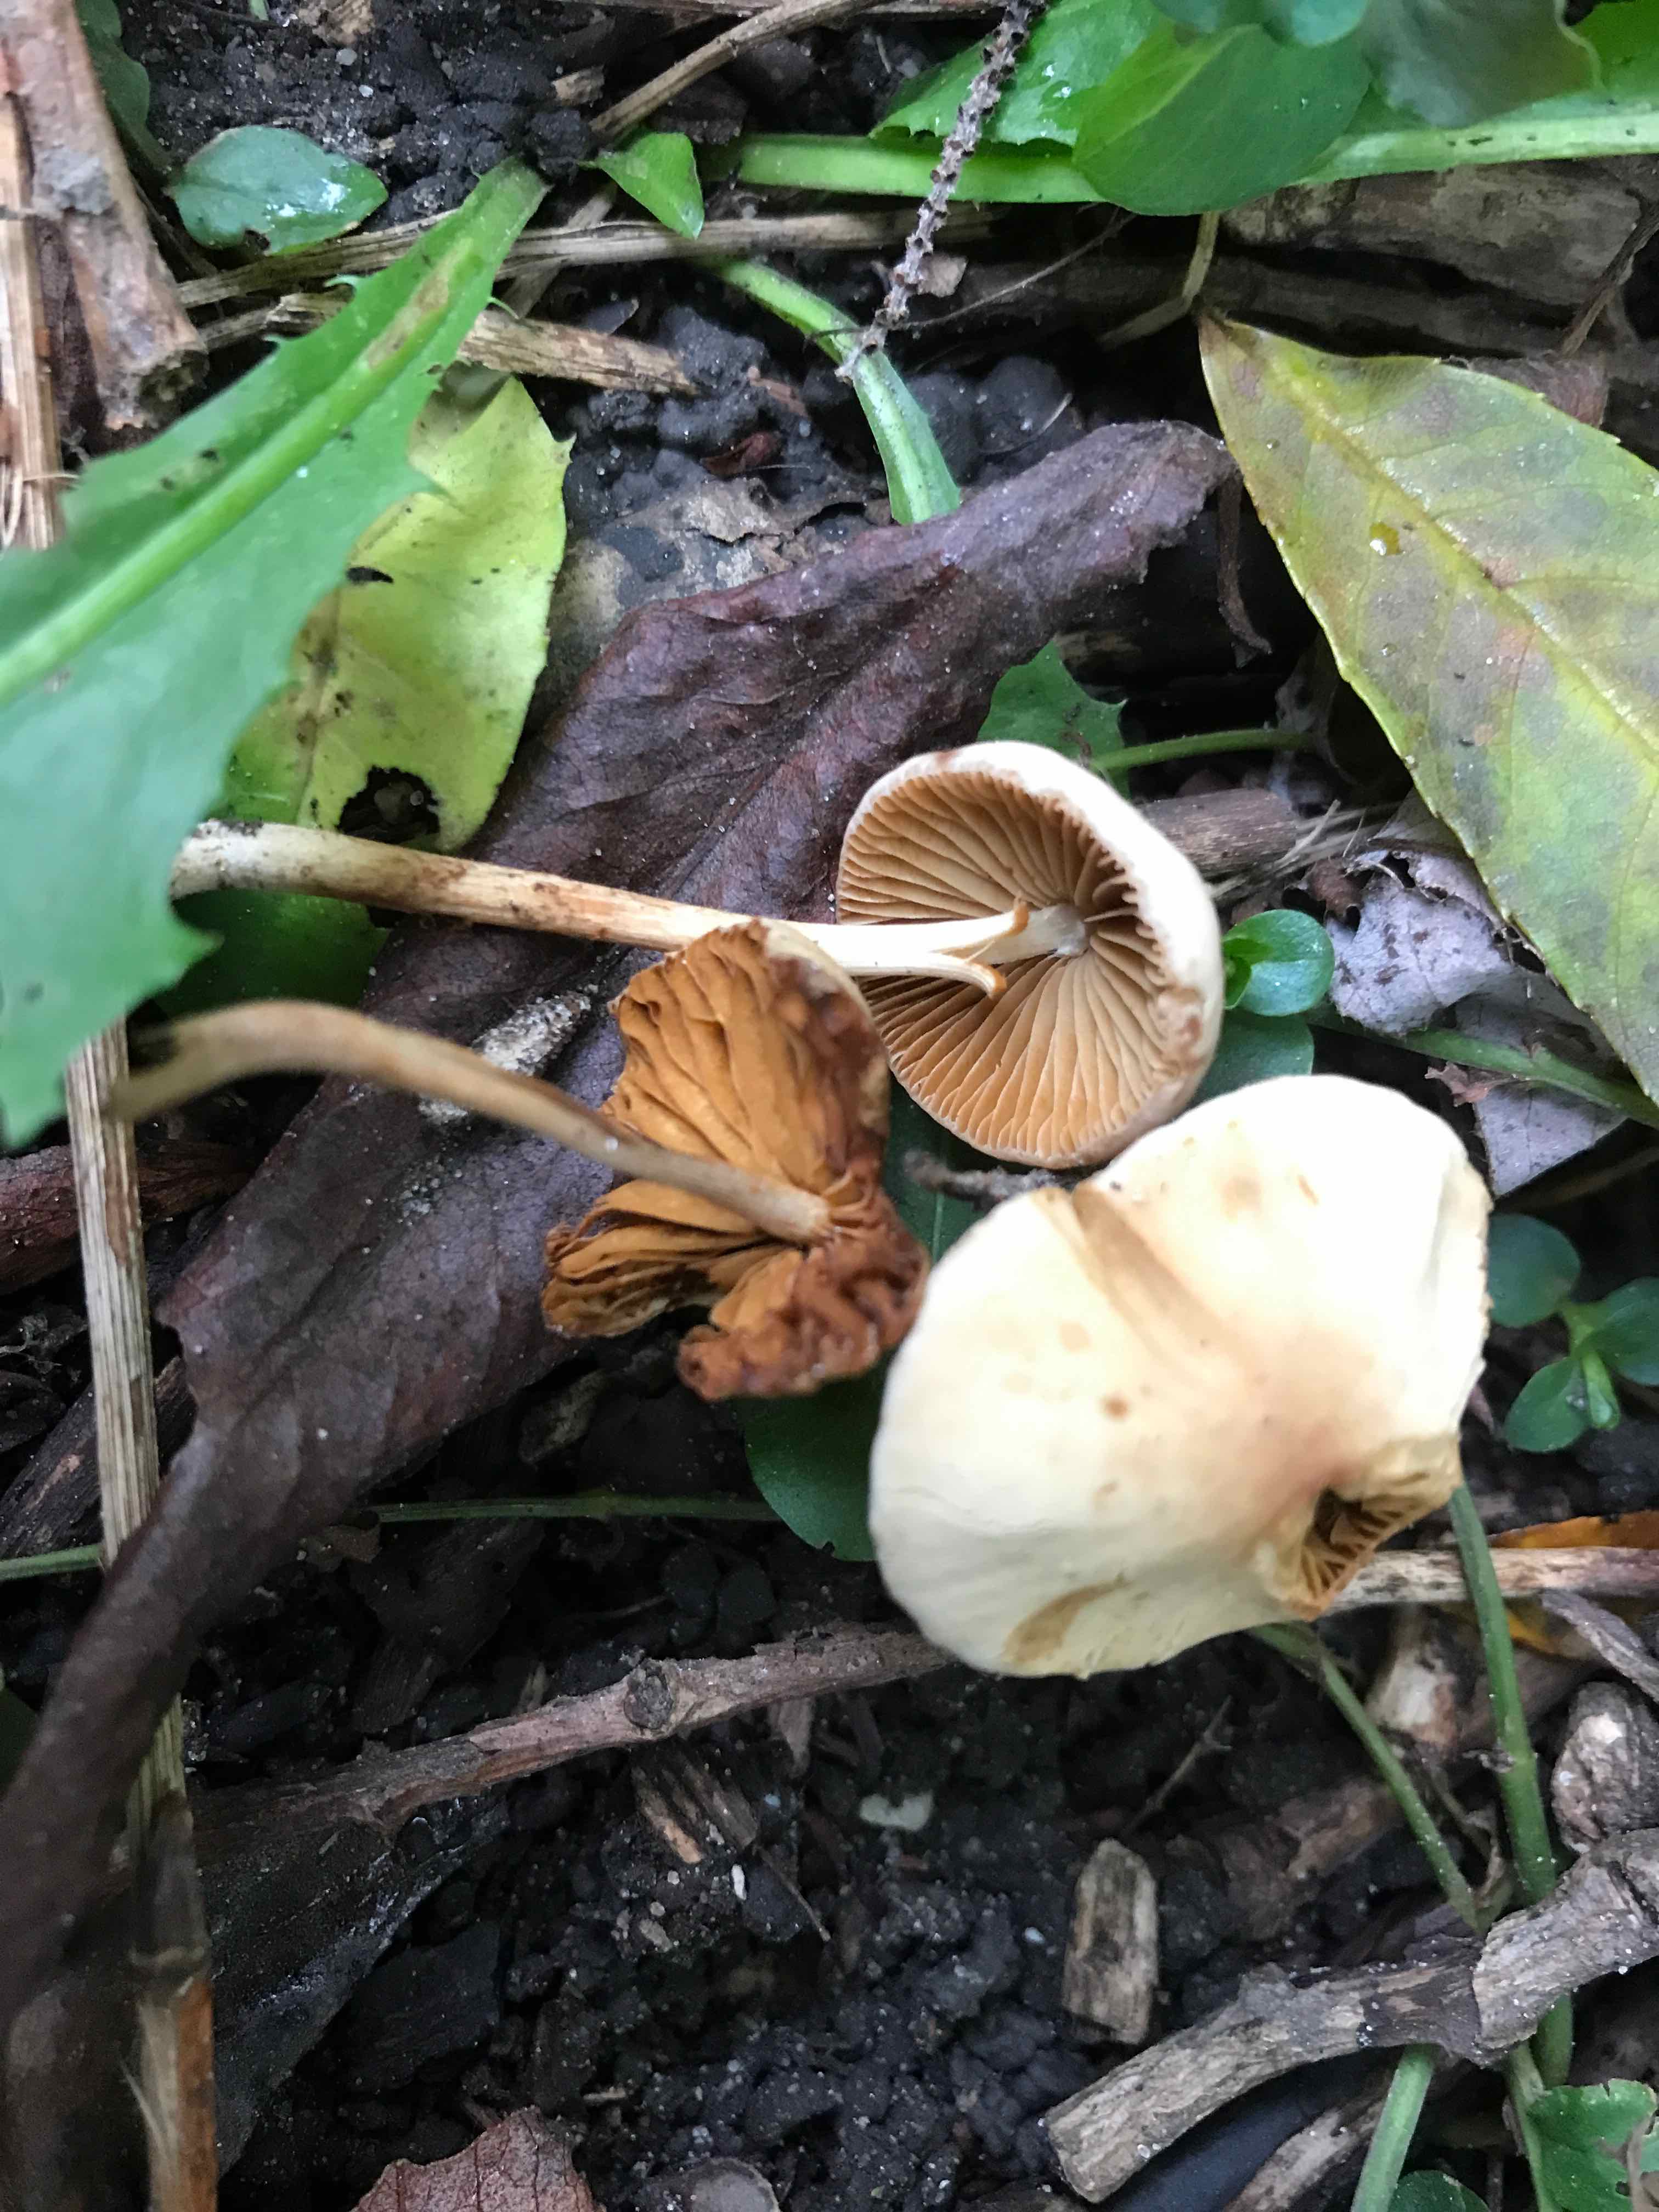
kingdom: Fungi
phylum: Basidiomycota
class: Agaricomycetes
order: Agaricales
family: Bolbitiaceae
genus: Conocybe
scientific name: Conocybe
